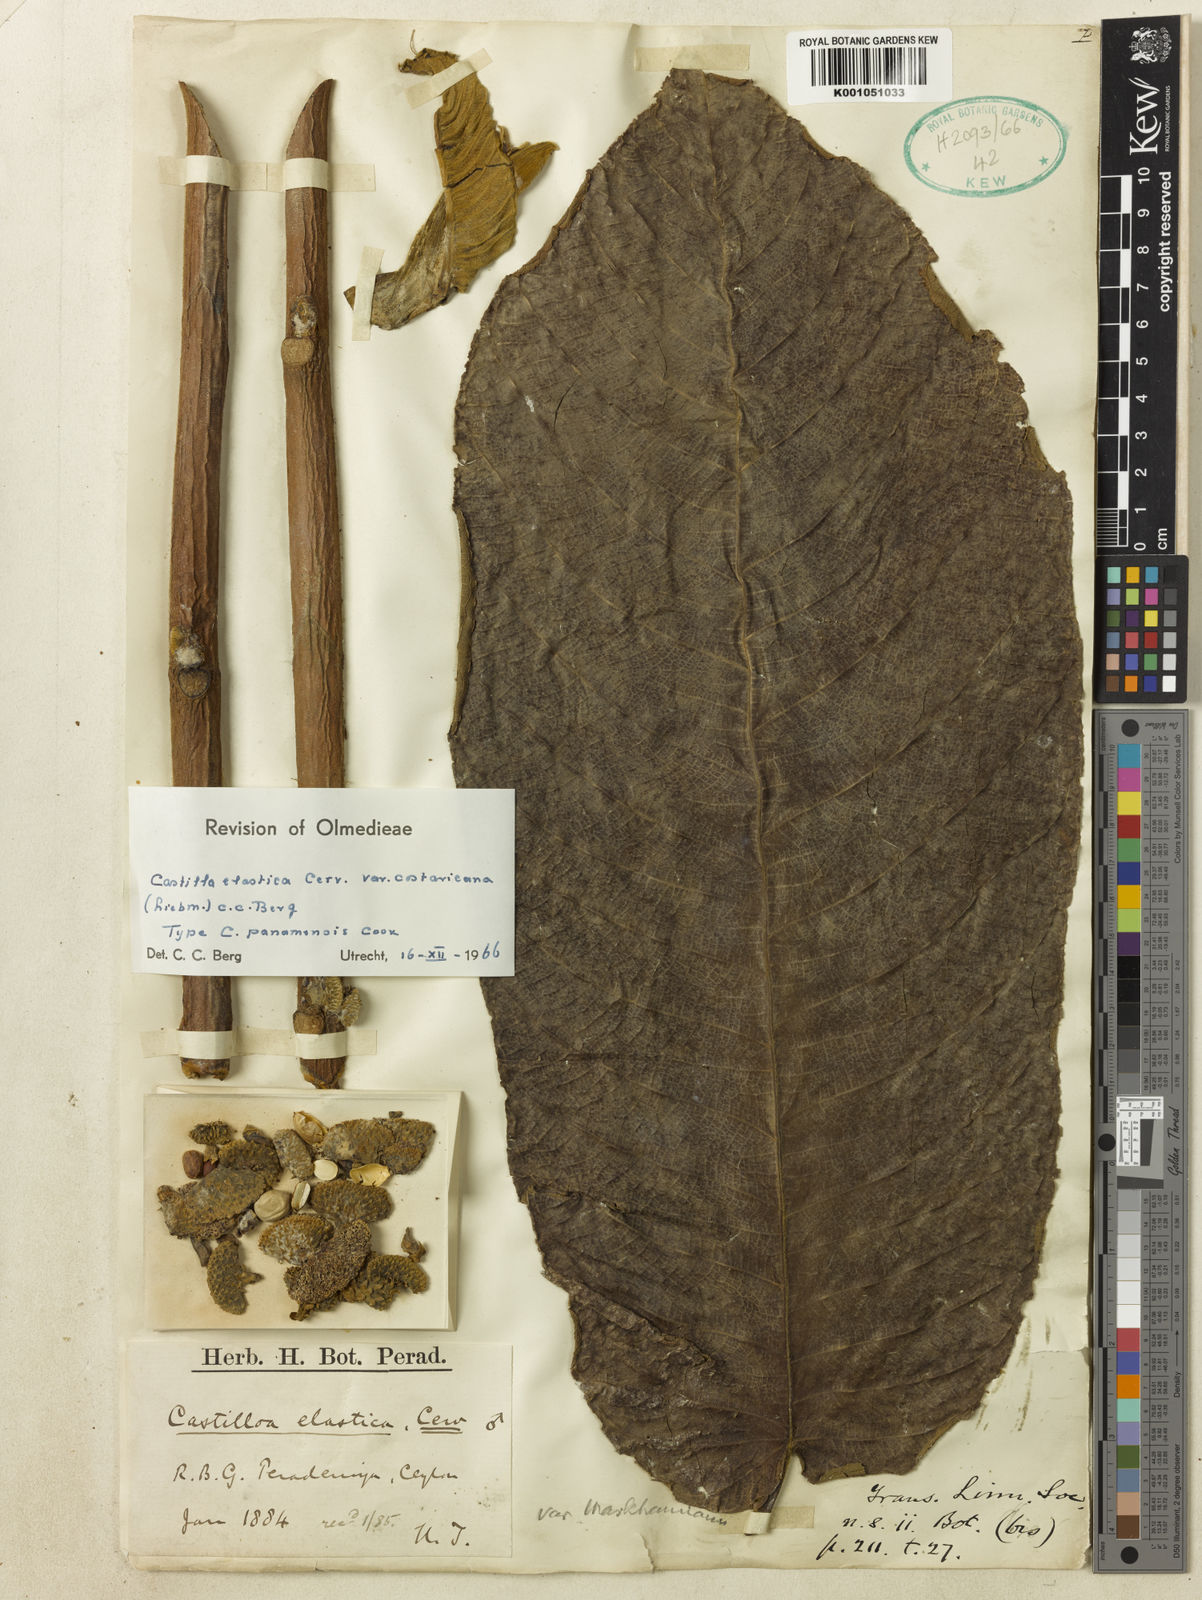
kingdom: Plantae
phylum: Tracheophyta
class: Magnoliopsida
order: Rosales
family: Moraceae
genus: Castilla
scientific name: Castilla elastica
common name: Castilla rubber
